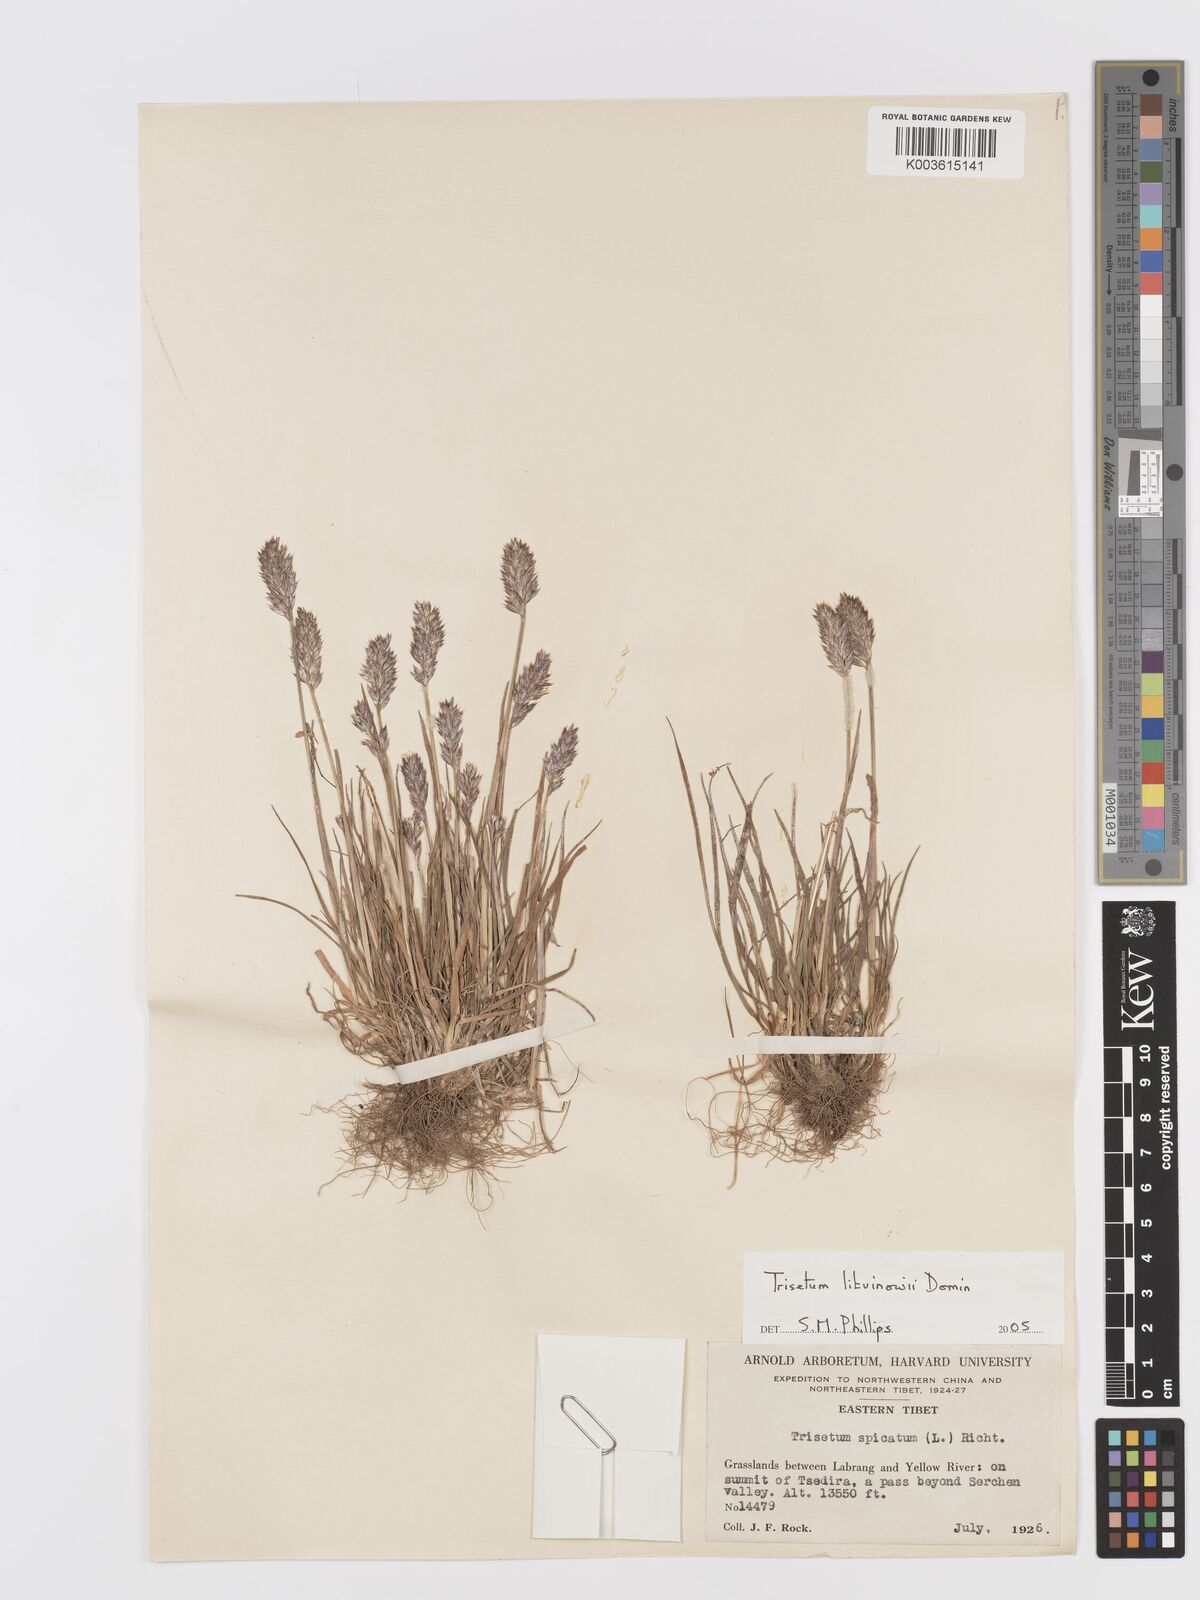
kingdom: Plantae
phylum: Tracheophyta
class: Liliopsida
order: Poales
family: Poaceae
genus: Koeleria
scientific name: Koeleria argentea
